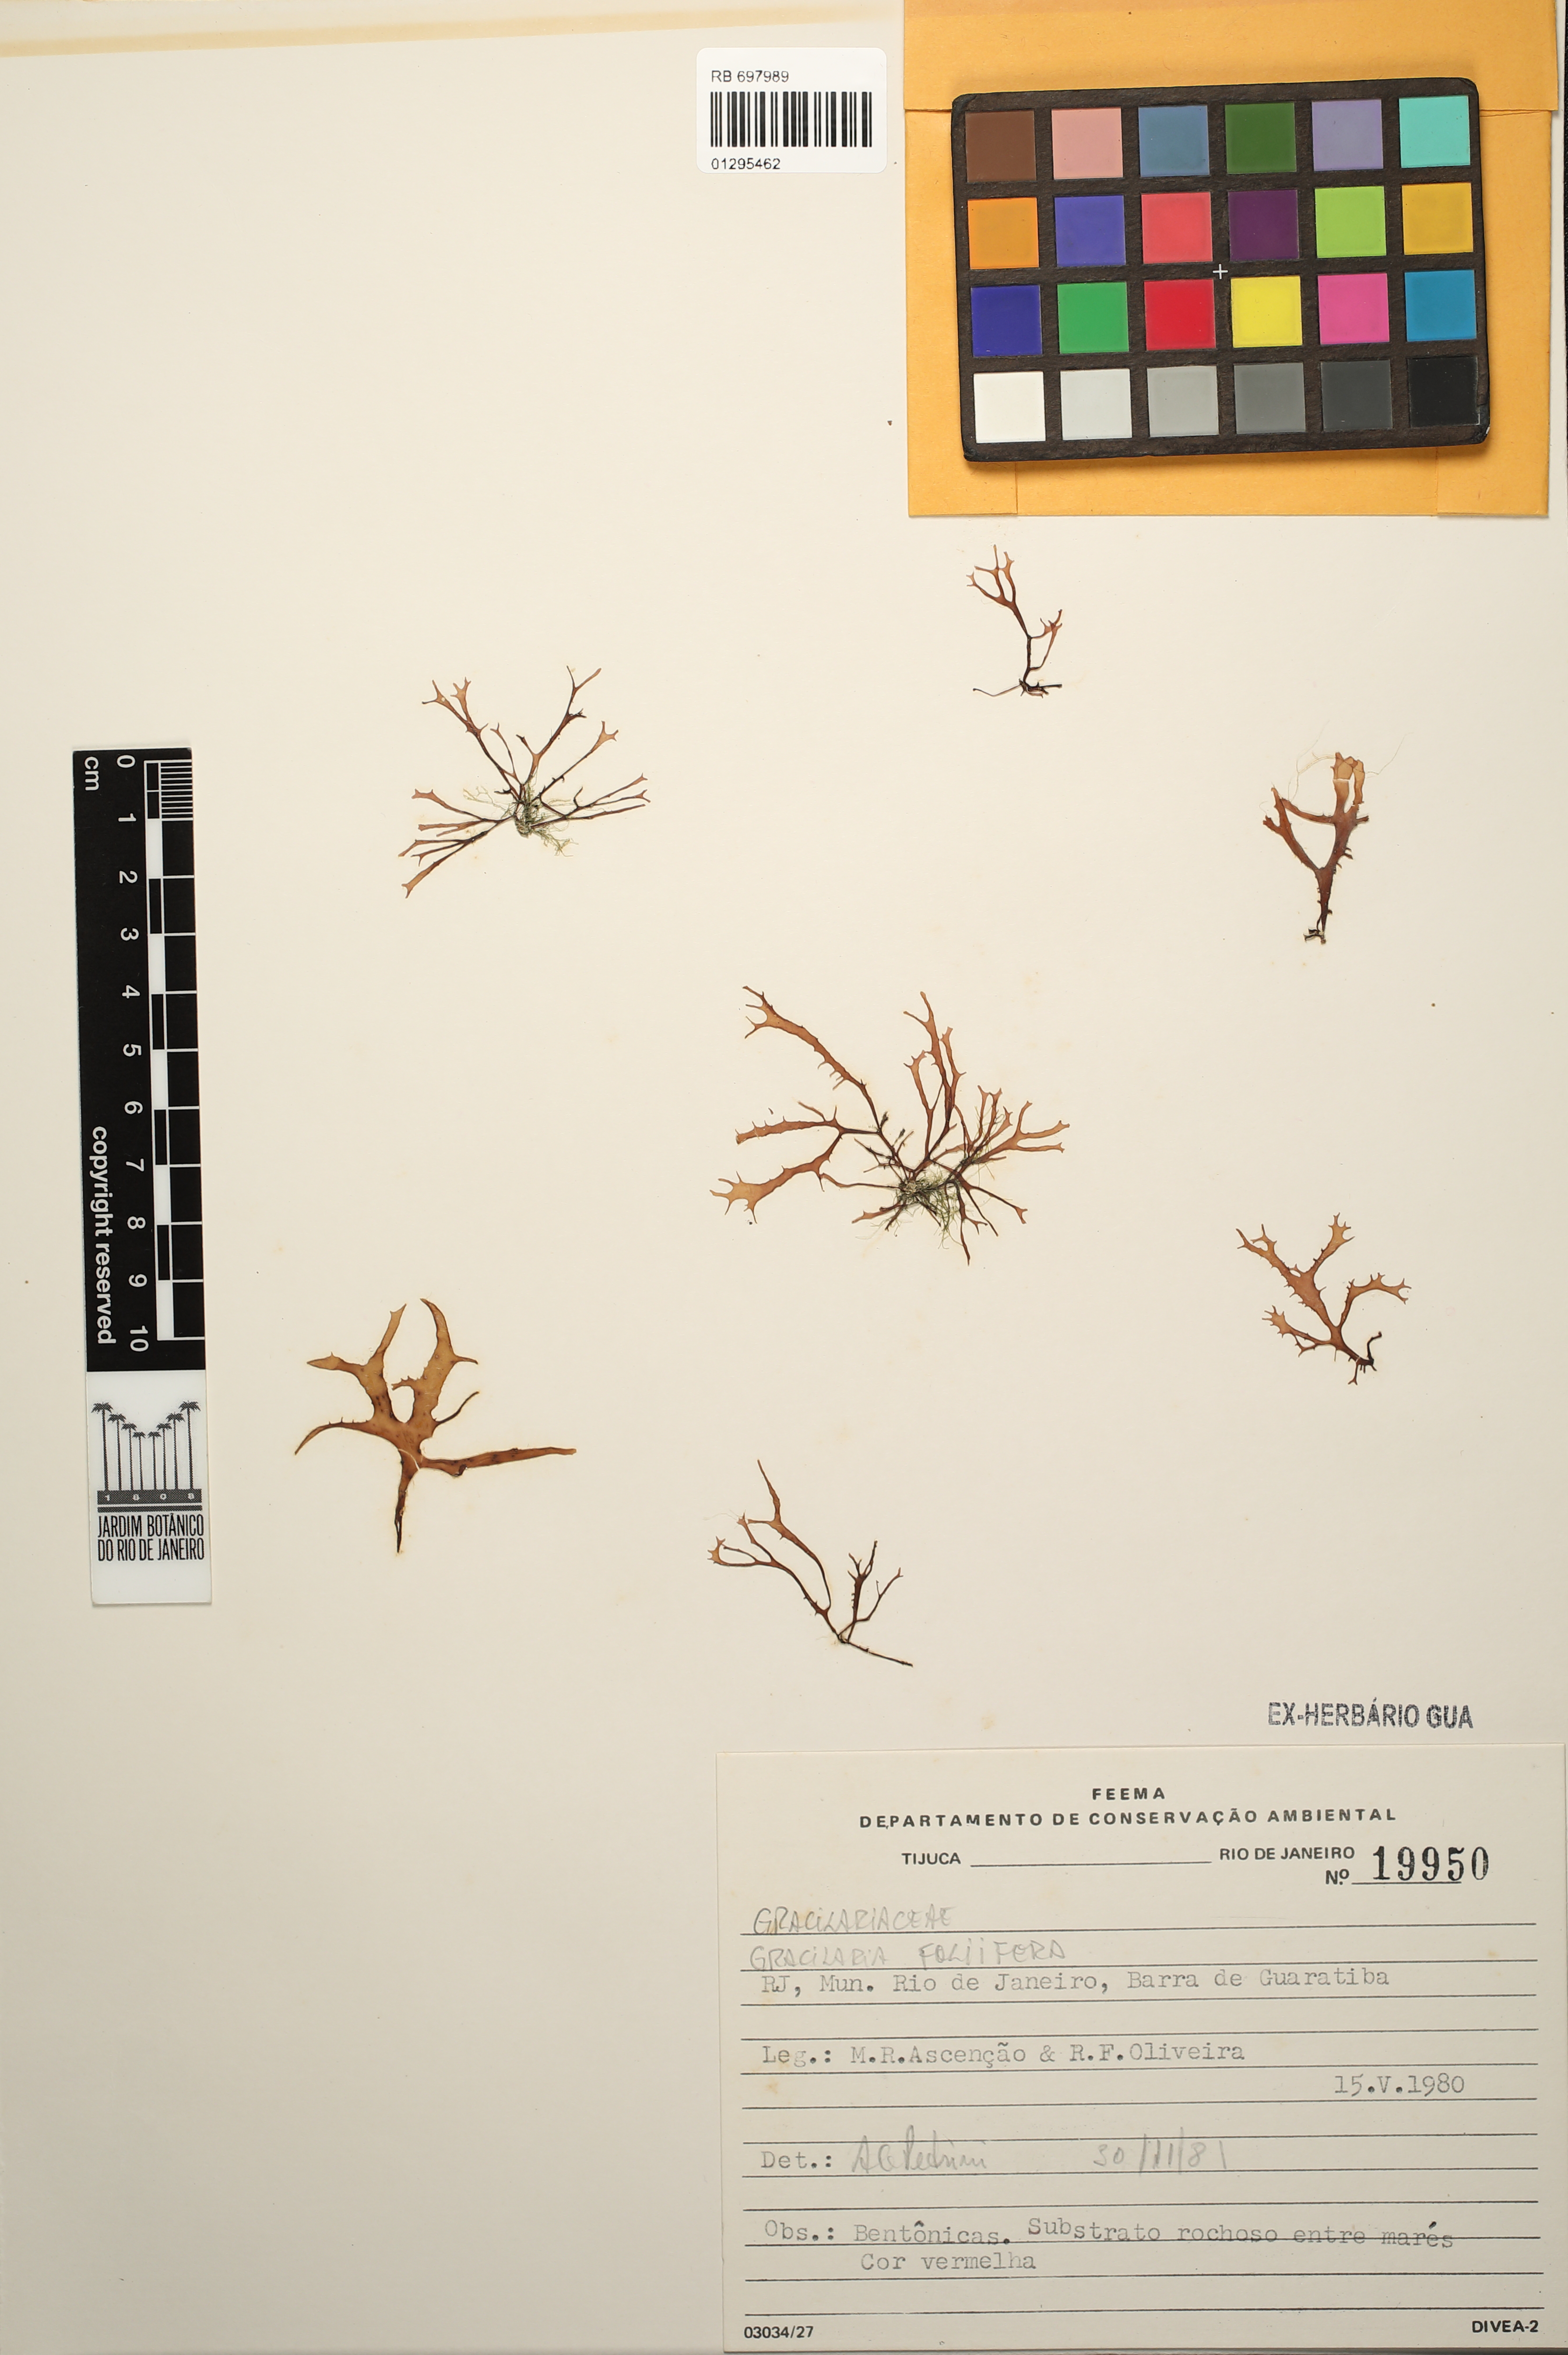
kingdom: Plantae
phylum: Rhodophyta
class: Florideophyceae
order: Gracilariales
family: Gracilariaceae
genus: Gracilaria
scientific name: Gracilaria foliifera
